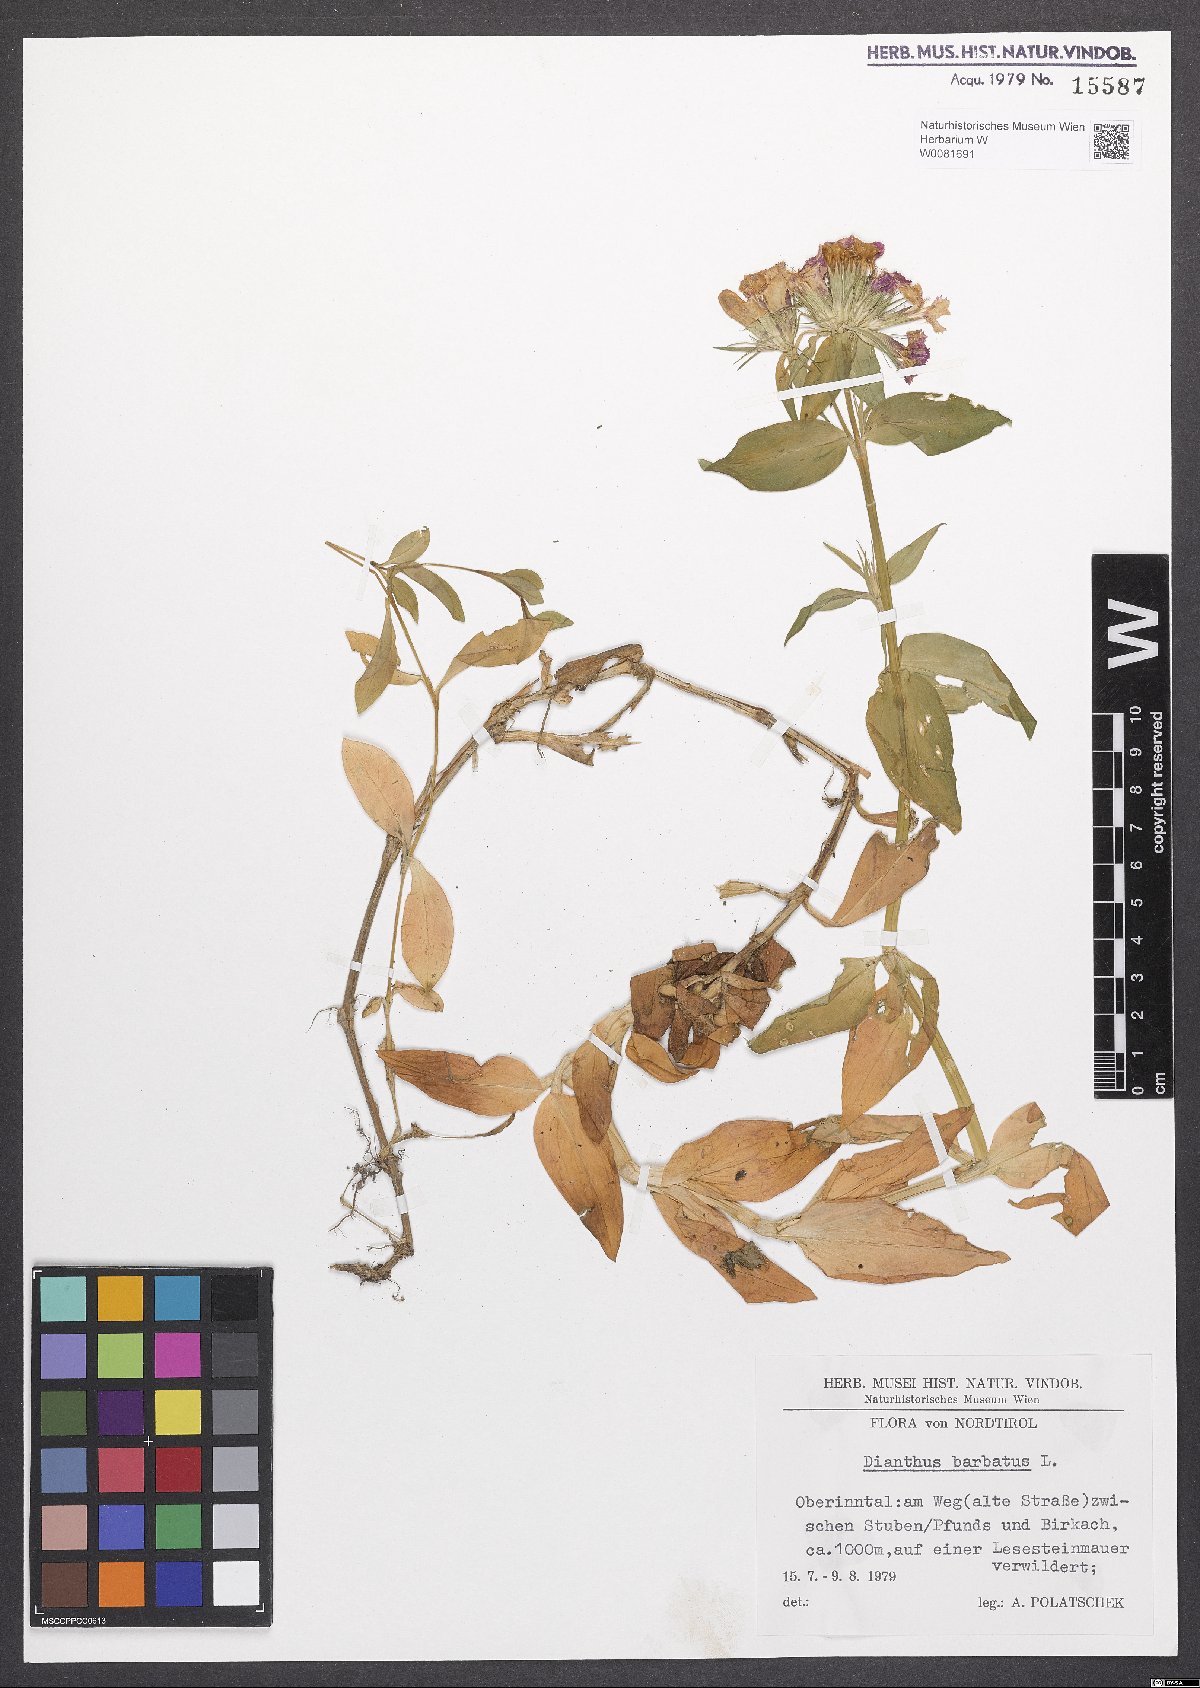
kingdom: Plantae
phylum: Tracheophyta
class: Magnoliopsida
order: Caryophyllales
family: Caryophyllaceae
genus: Dianthus
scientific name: Dianthus barbatus
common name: Sweet-william
